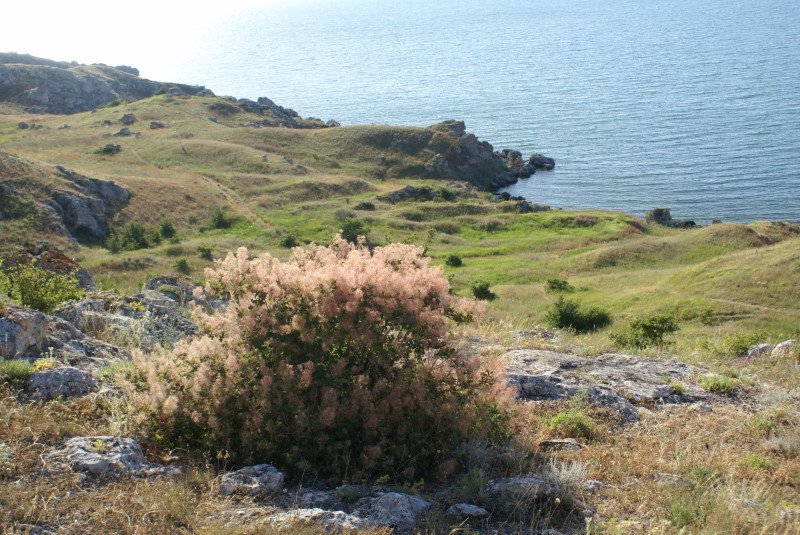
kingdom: Plantae
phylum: Tracheophyta
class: Magnoliopsida
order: Sapindales
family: Anacardiaceae
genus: Cotinus
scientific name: Cotinus coggygria
